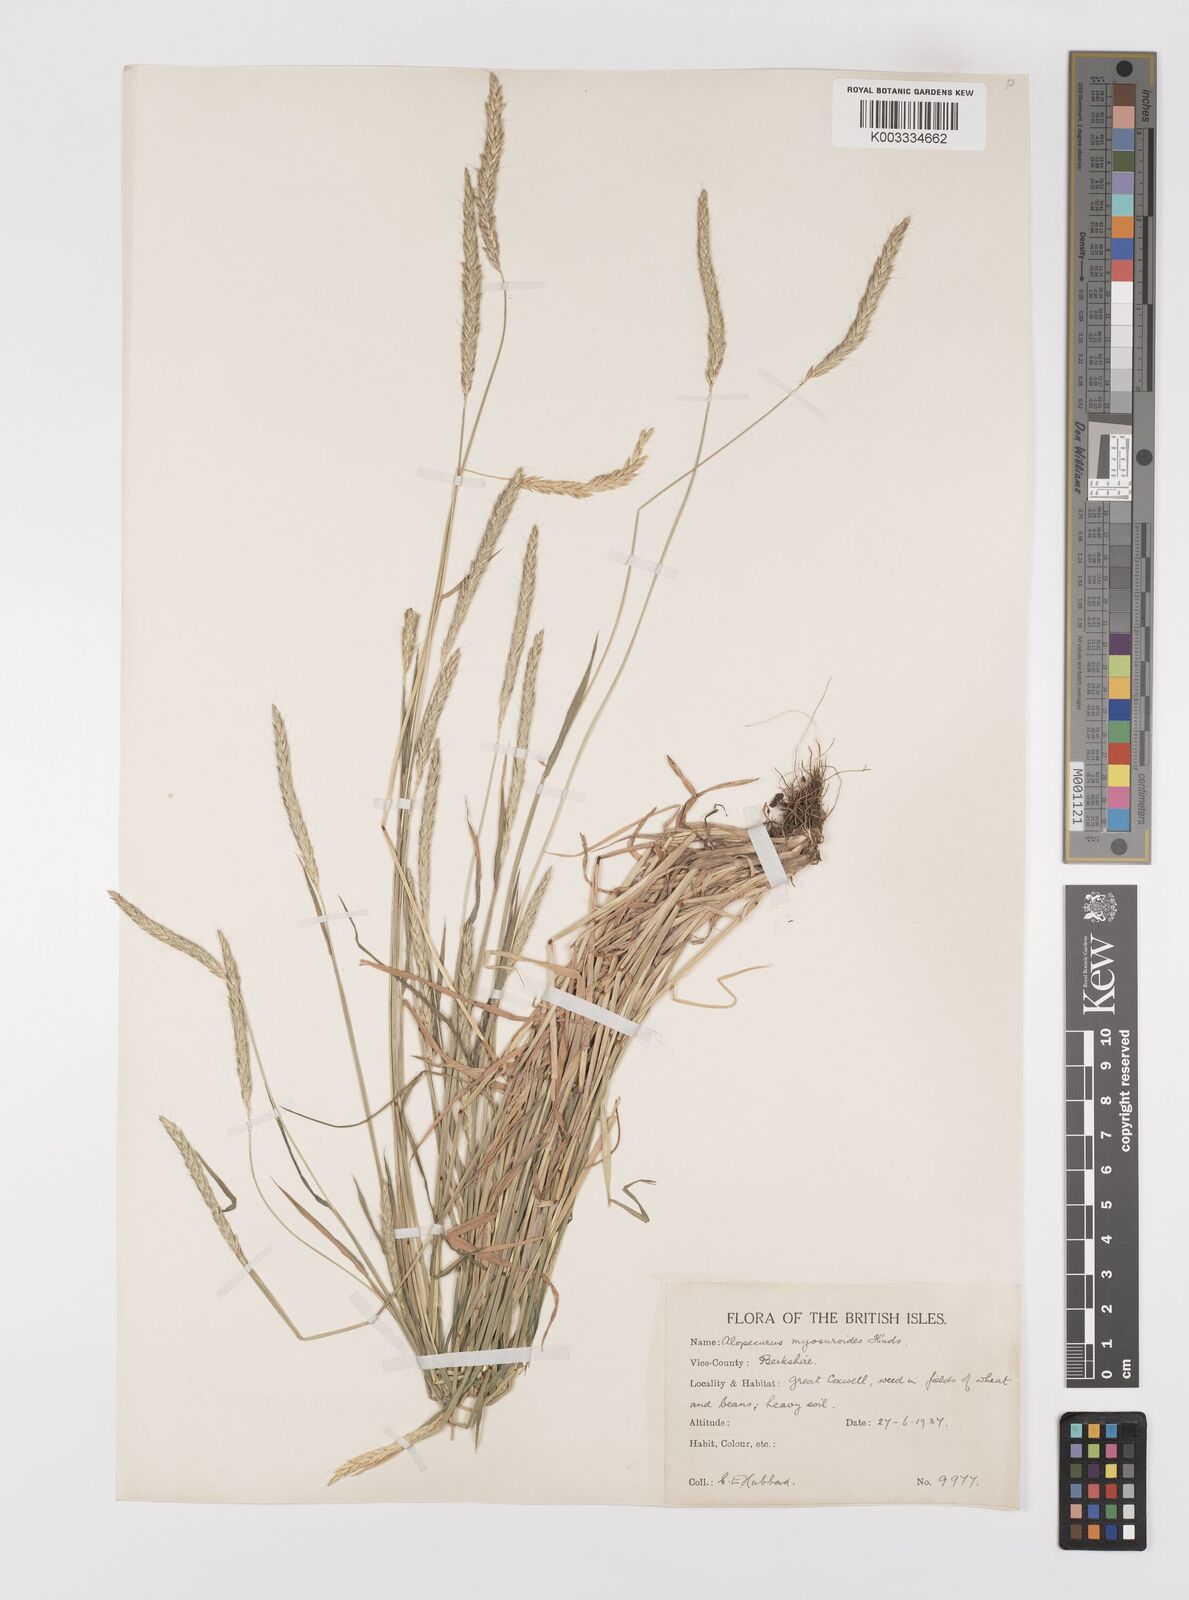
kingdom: Plantae
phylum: Tracheophyta
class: Liliopsida
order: Poales
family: Poaceae
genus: Alopecurus
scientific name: Alopecurus myosuroides
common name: Black-grass
